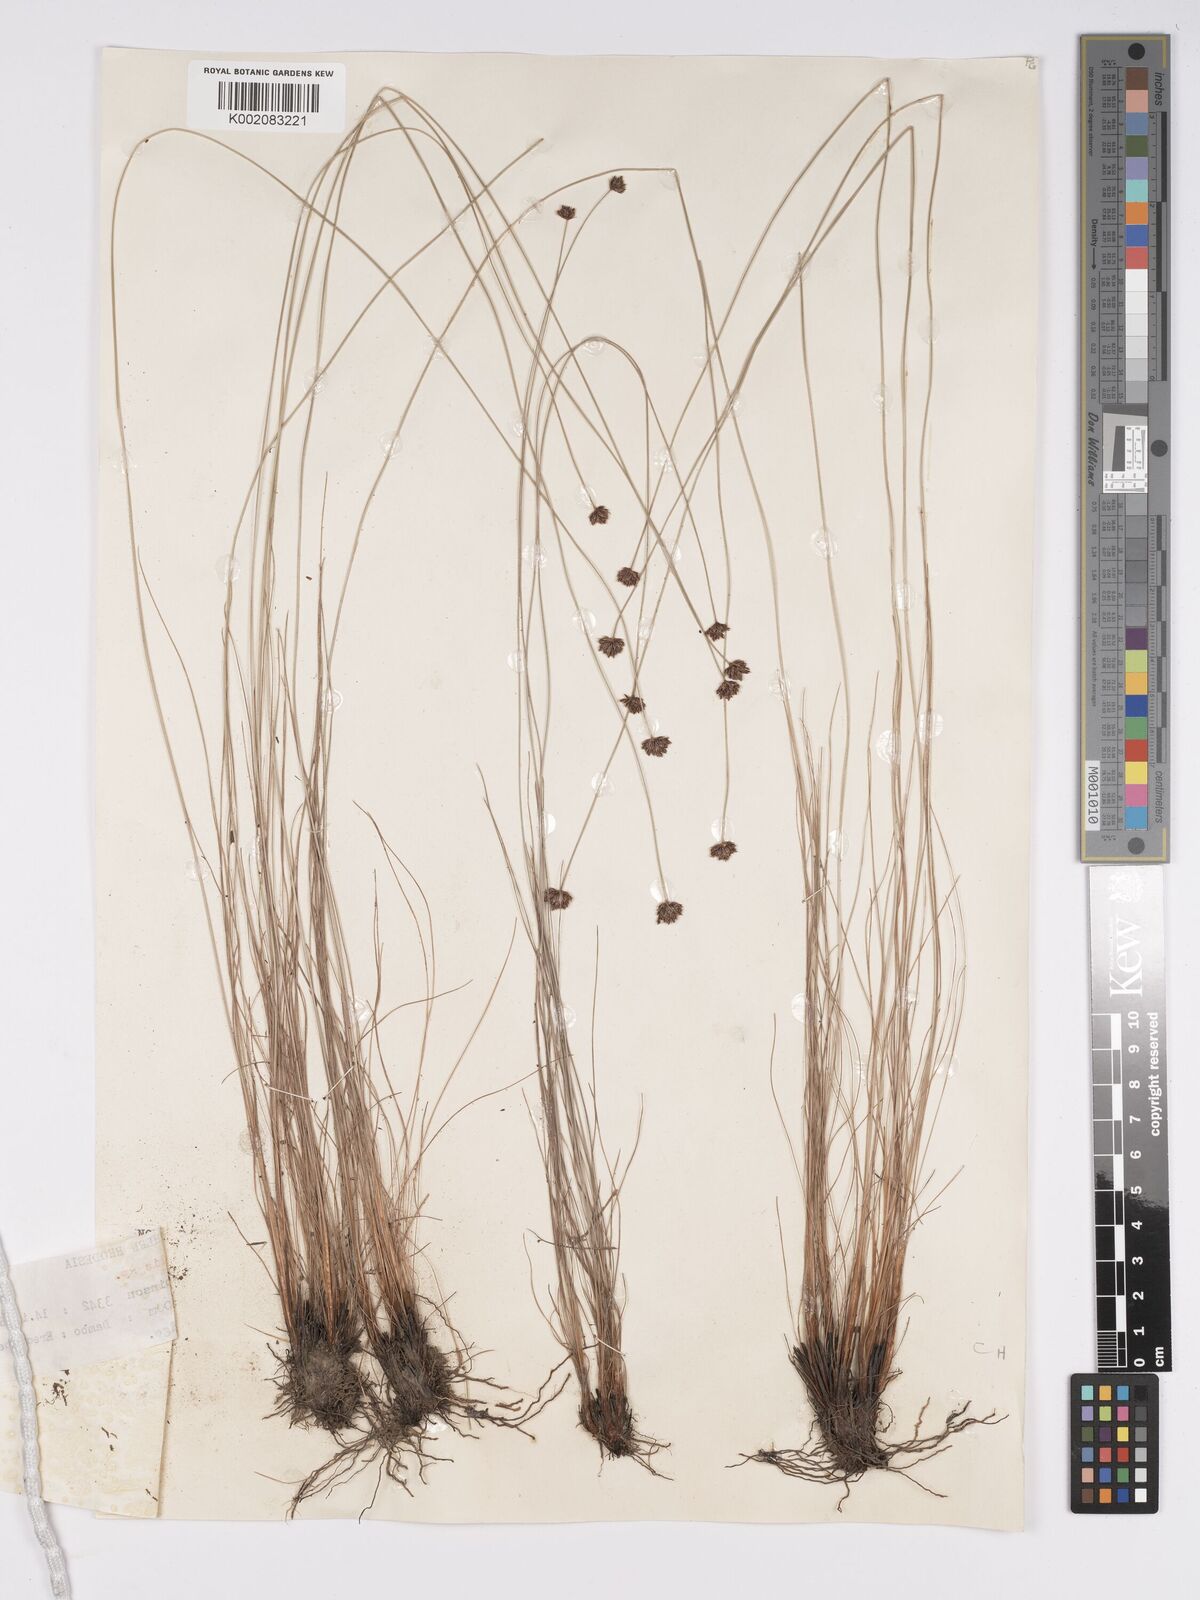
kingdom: Plantae
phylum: Tracheophyta
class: Liliopsida
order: Poales
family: Cyperaceae
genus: Bulbostylis
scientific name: Bulbostylis filamentosa
